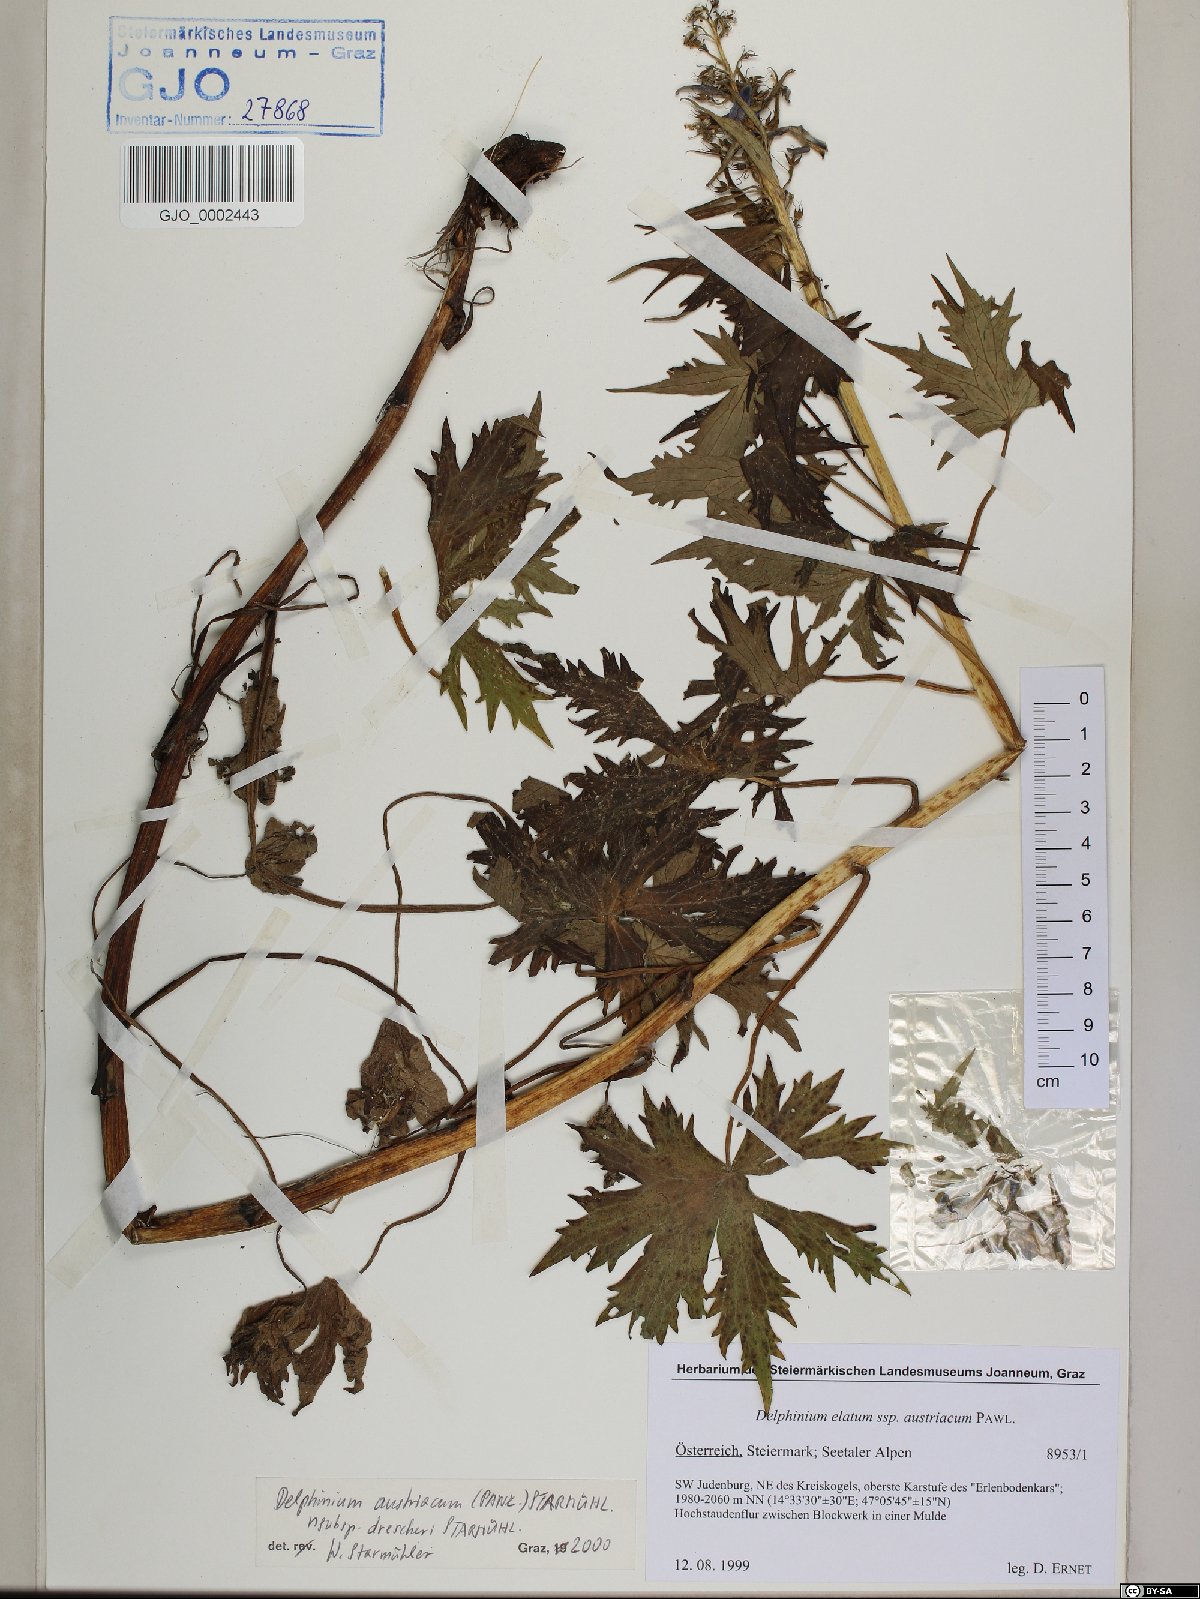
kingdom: Plantae
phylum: Tracheophyta
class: Magnoliopsida
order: Ranunculales
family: Ranunculaceae
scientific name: Ranunculaceae
